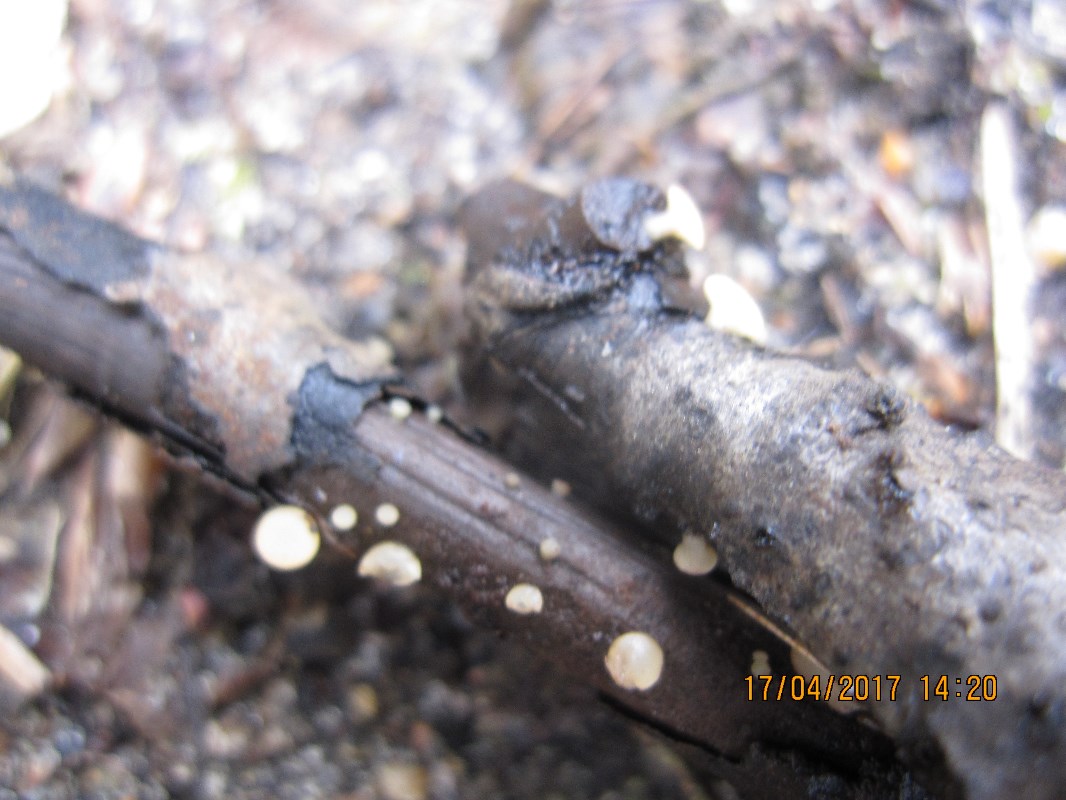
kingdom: Fungi
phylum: Ascomycota
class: Leotiomycetes
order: Helotiales
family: Helotiaceae
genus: Hymenoscyphus
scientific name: Hymenoscyphus vernus
